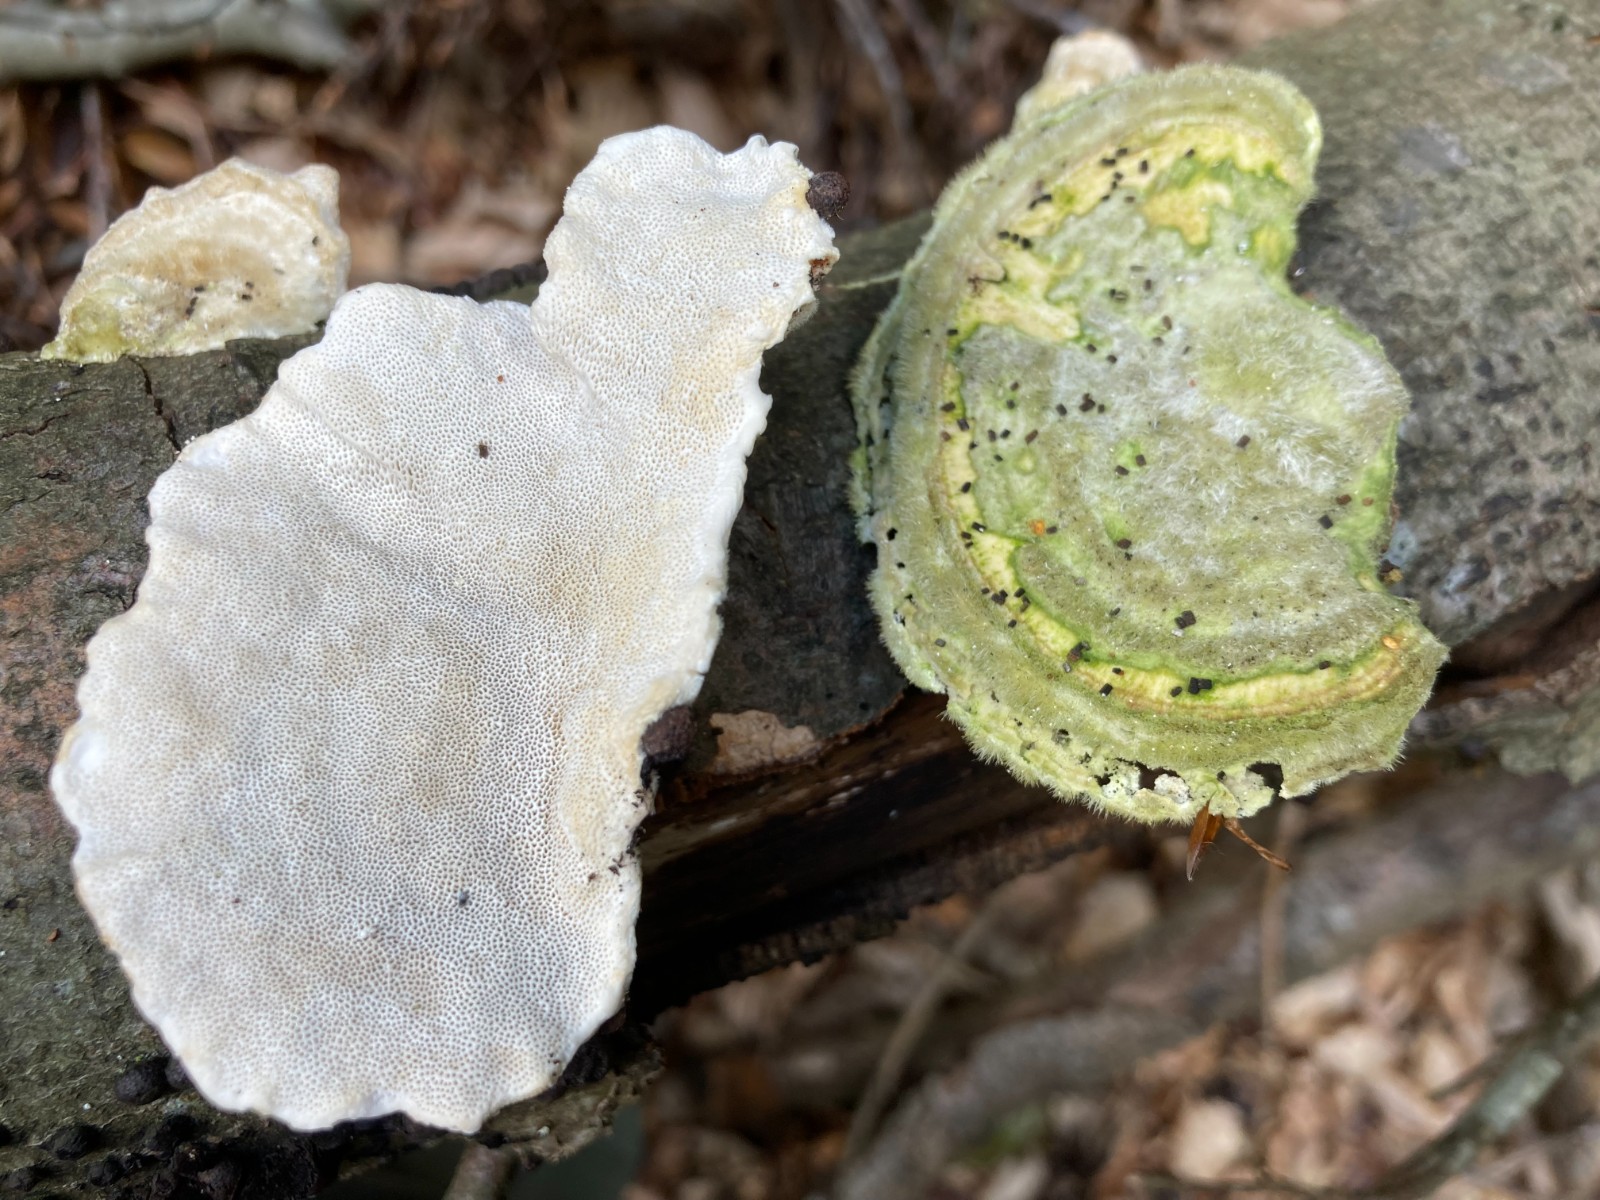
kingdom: Fungi
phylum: Basidiomycota
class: Agaricomycetes
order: Polyporales
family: Polyporaceae
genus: Trametes
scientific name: Trametes hirsuta
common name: håret læderporesvamp
